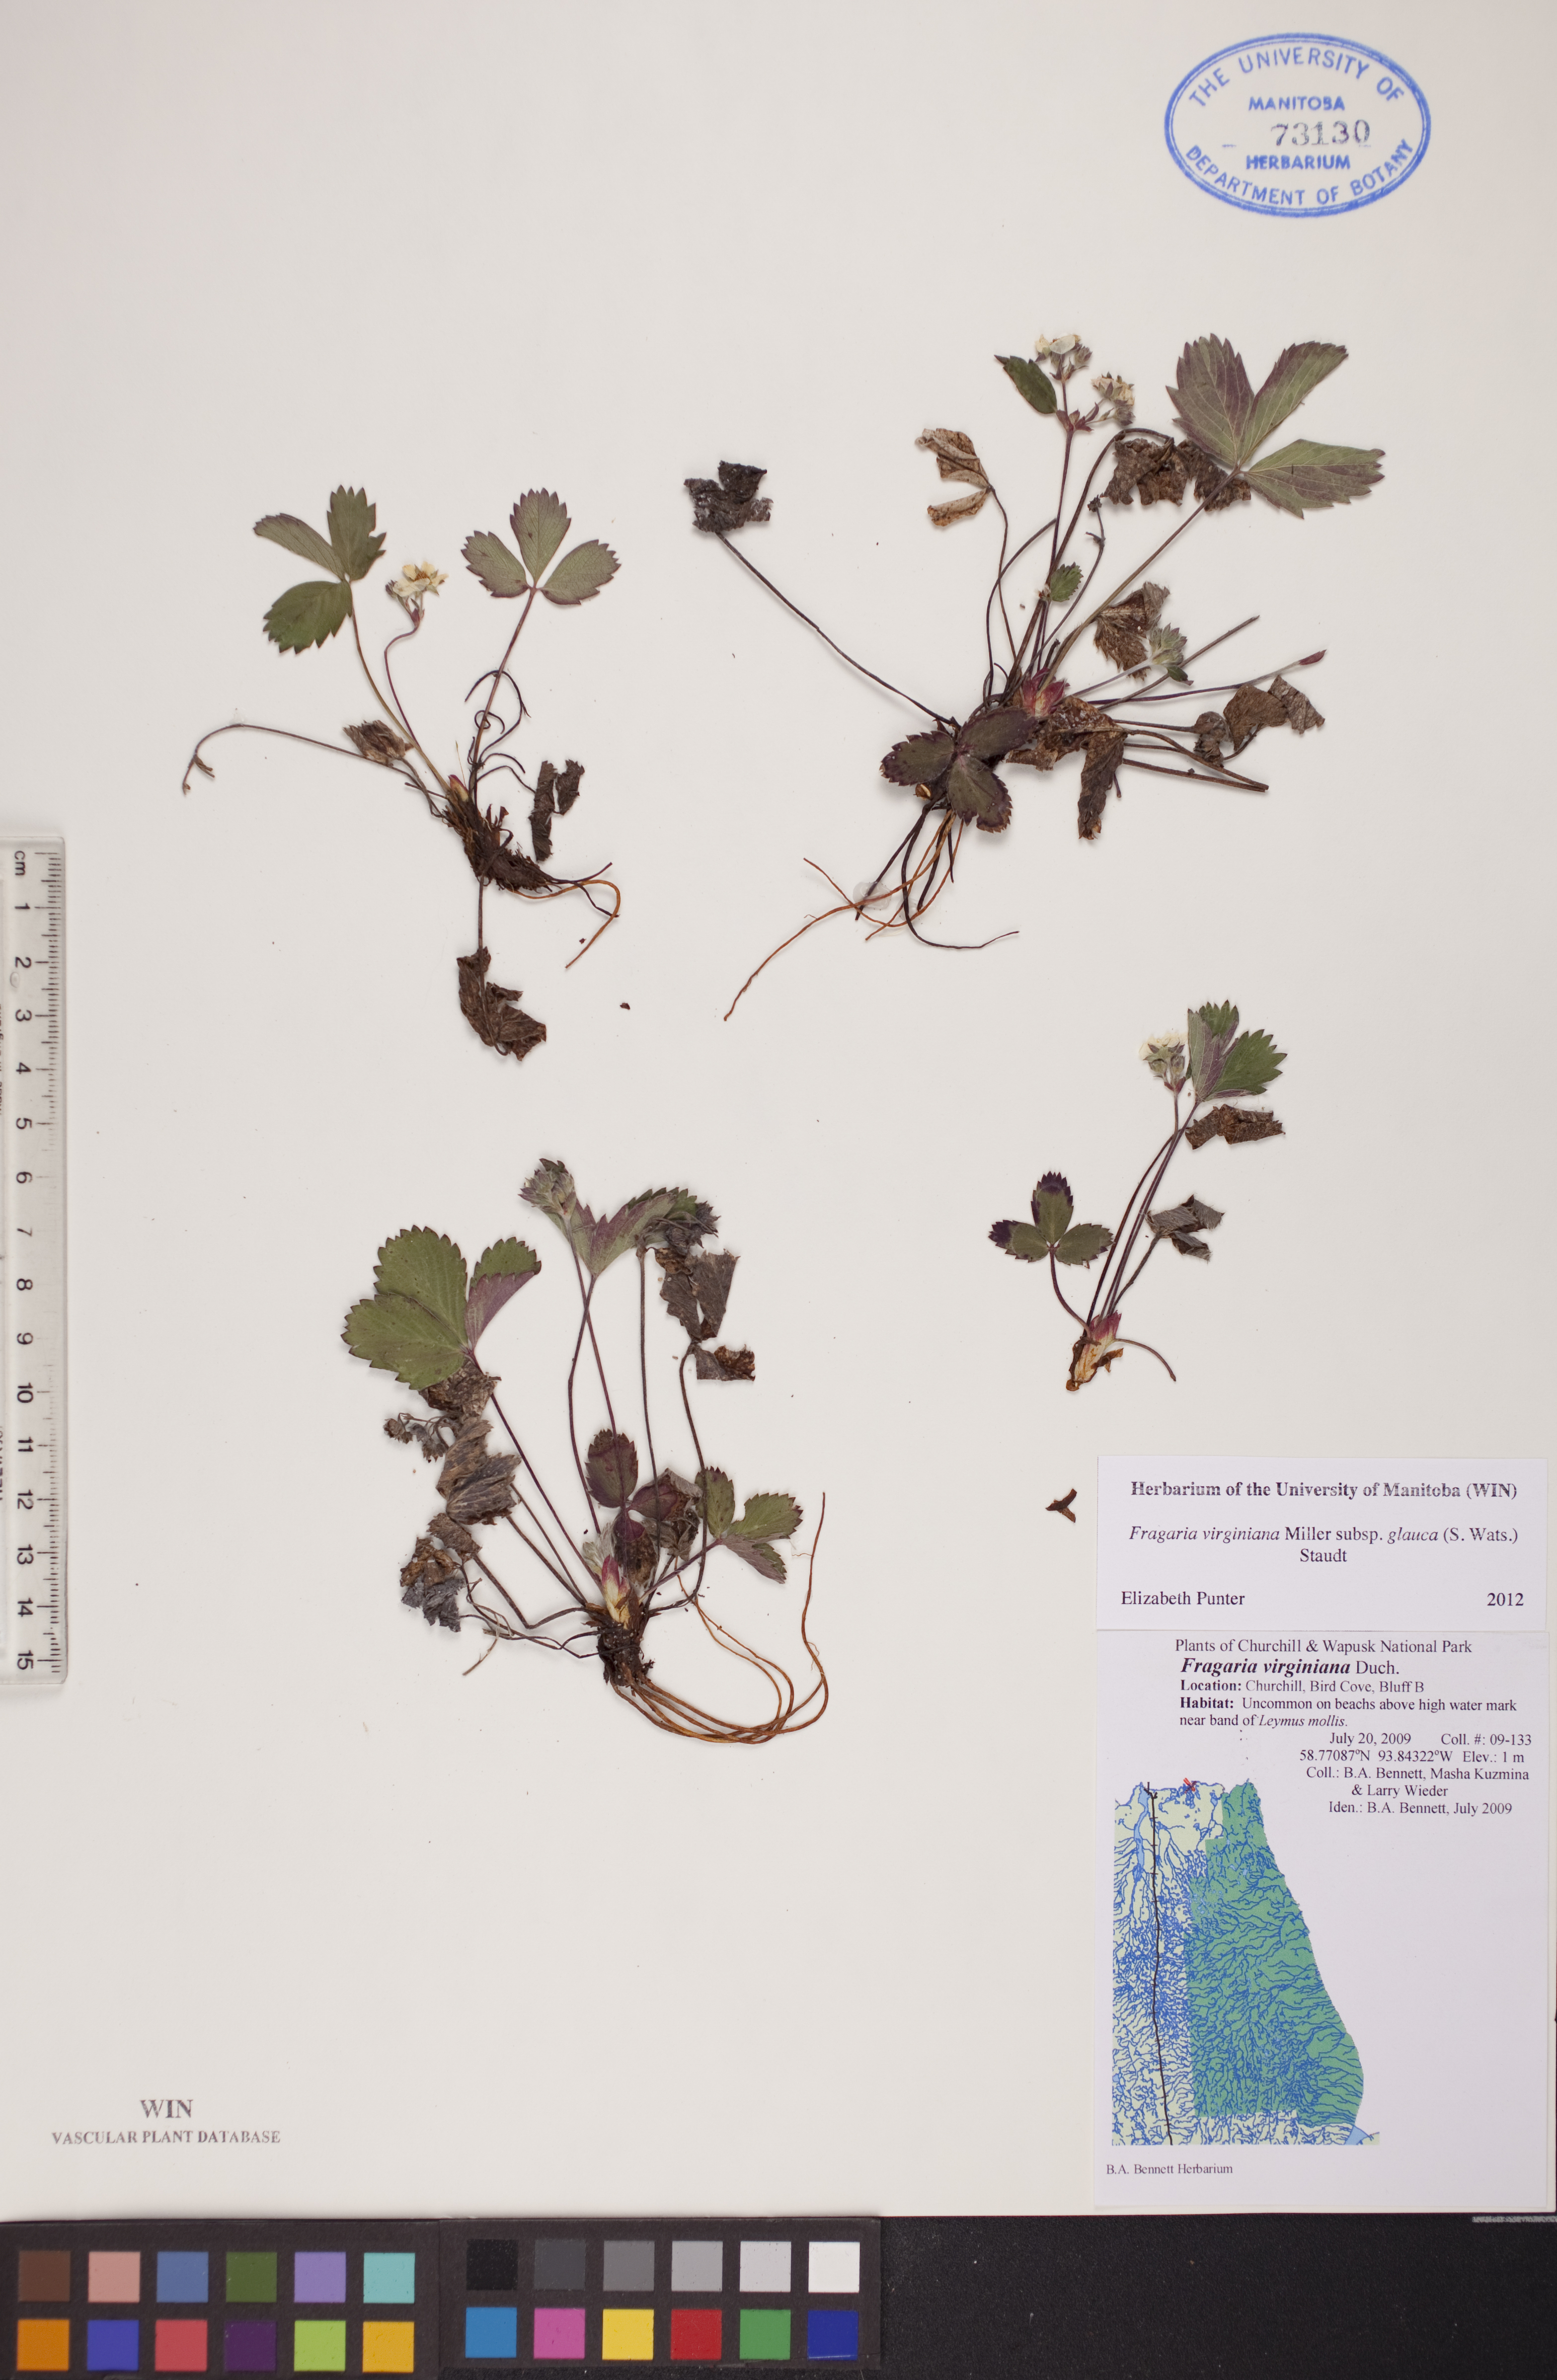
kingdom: Plantae
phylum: Tracheophyta
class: Magnoliopsida
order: Rosales
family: Rosaceae
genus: Fragaria
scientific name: Fragaria virginiana
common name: Thickleaved wild strawberry
